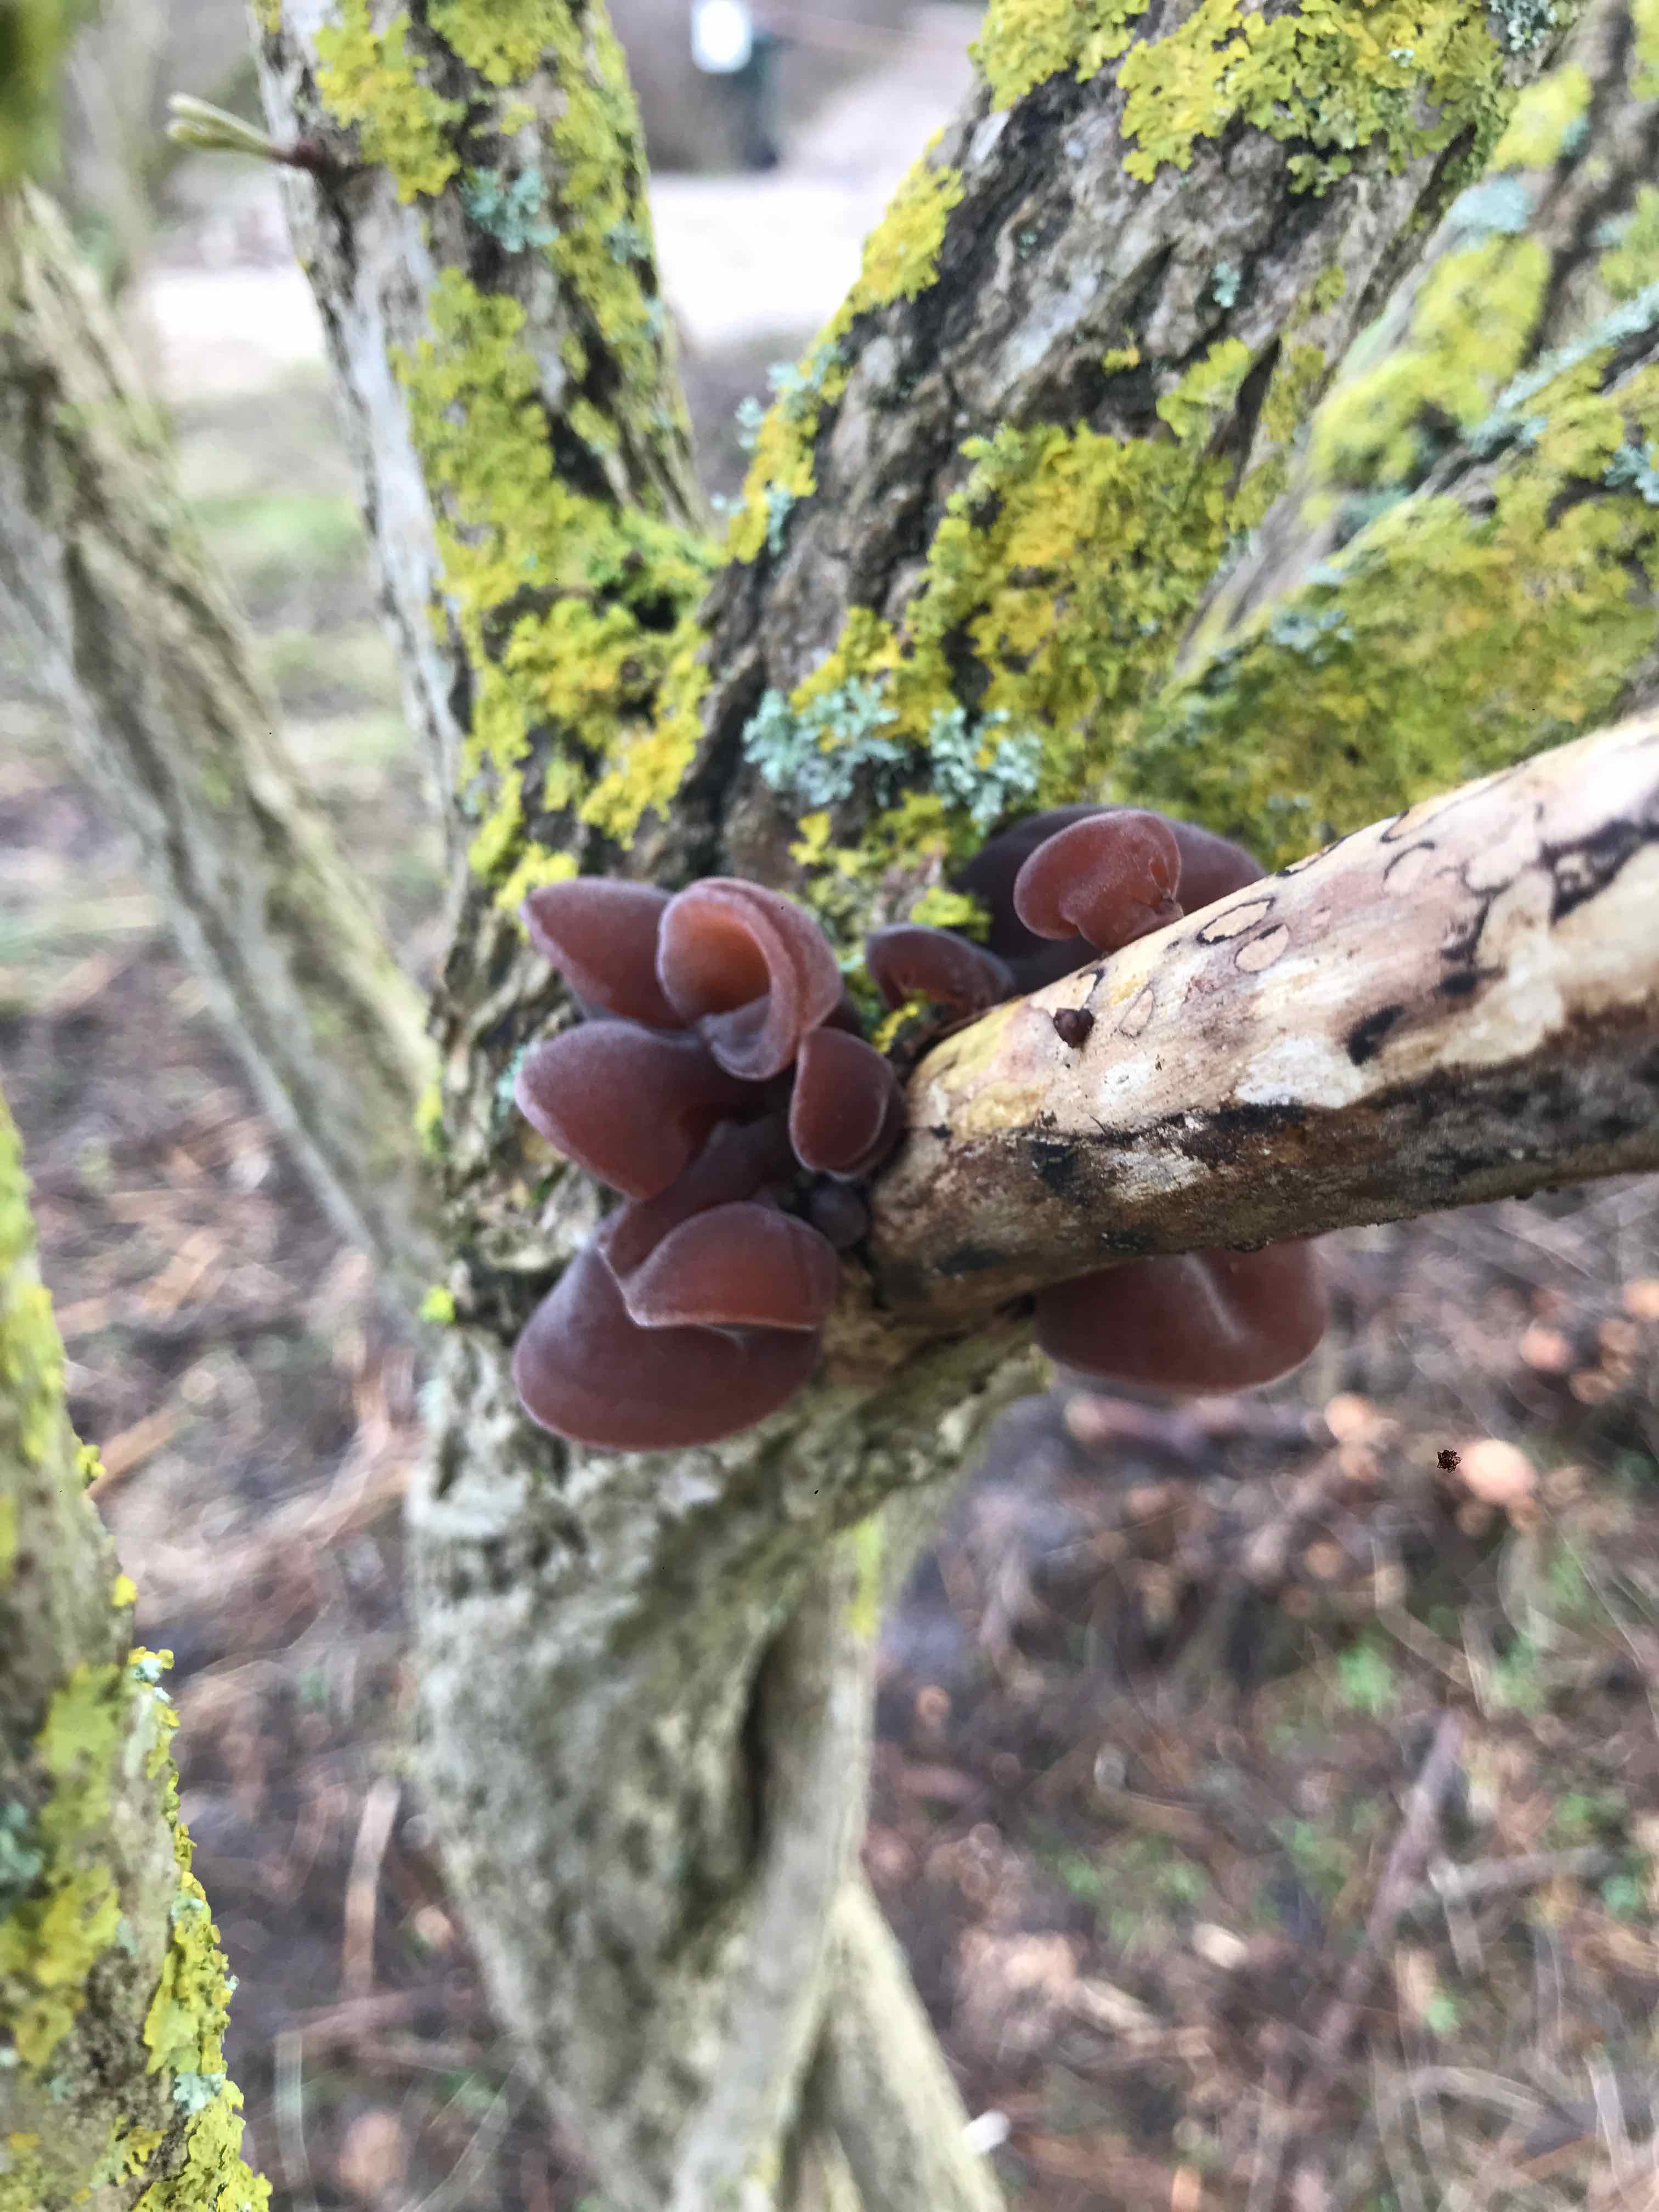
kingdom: Fungi
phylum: Basidiomycota
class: Agaricomycetes
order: Auriculariales
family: Auriculariaceae
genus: Auricularia
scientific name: Auricularia auricula-judae
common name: almindelig judasøre
